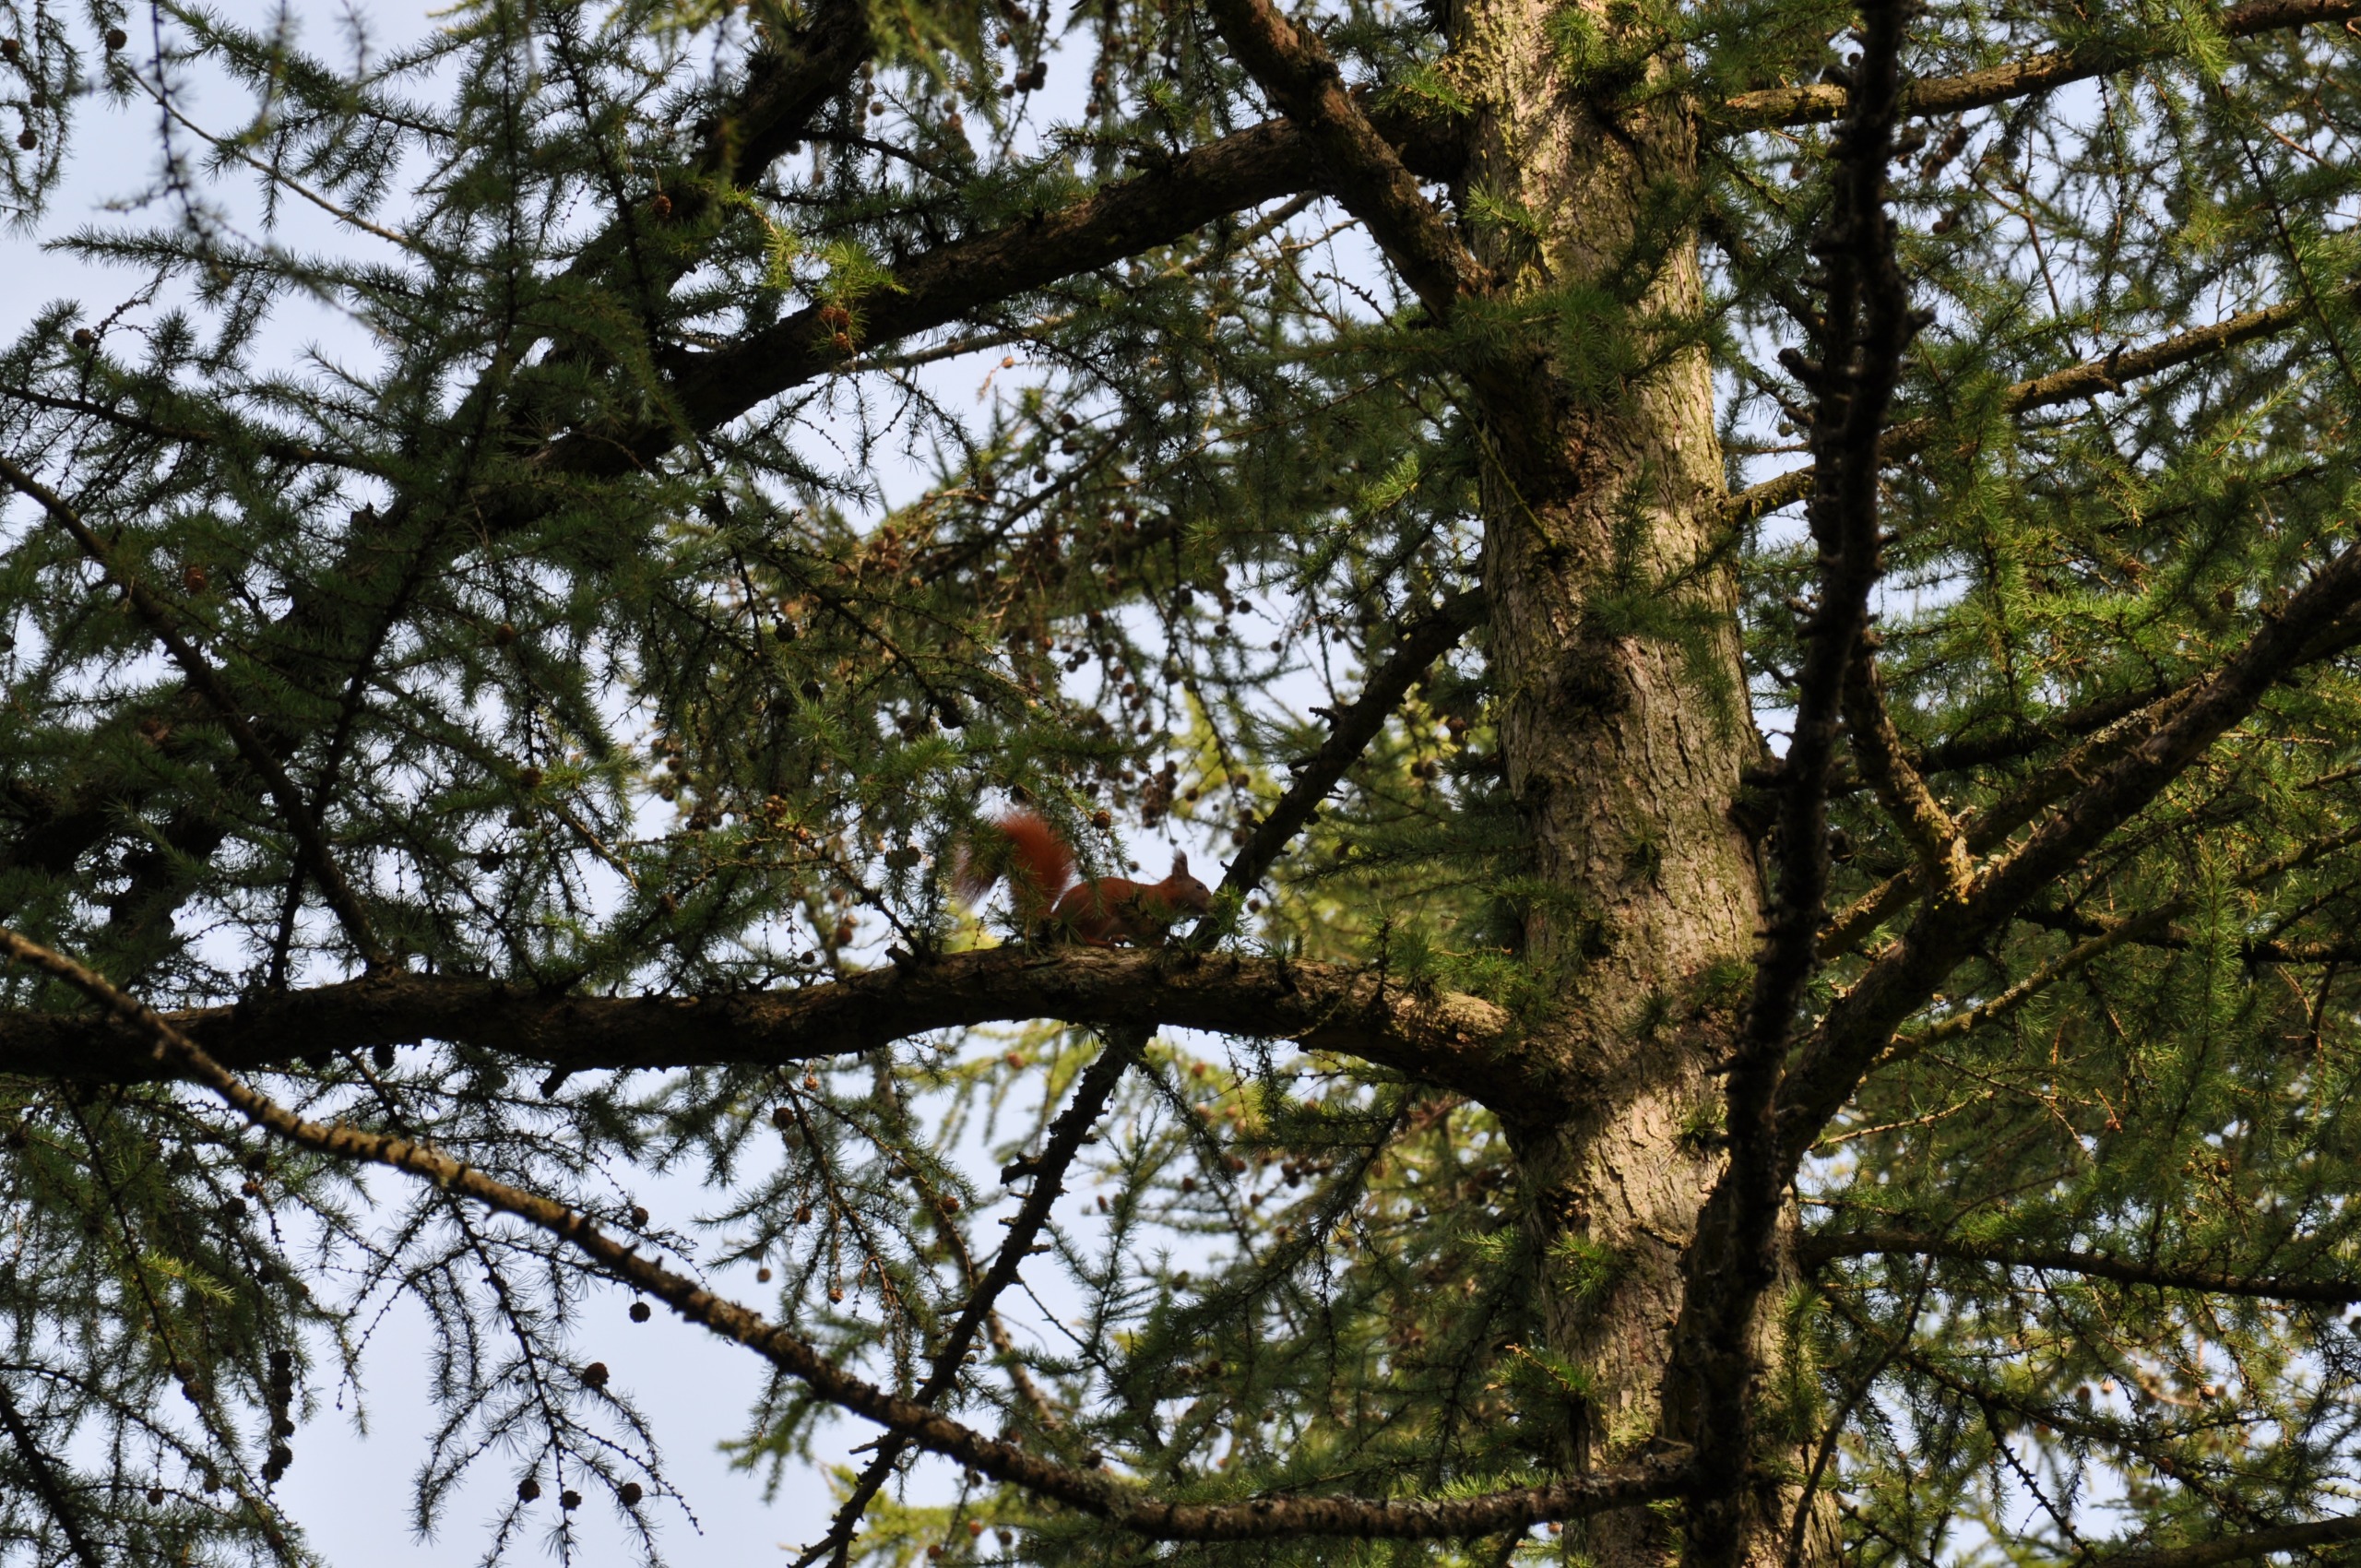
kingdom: Animalia
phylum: Chordata
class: Mammalia
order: Rodentia
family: Sciuridae
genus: Sciurus
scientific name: Sciurus vulgaris
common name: Egern
